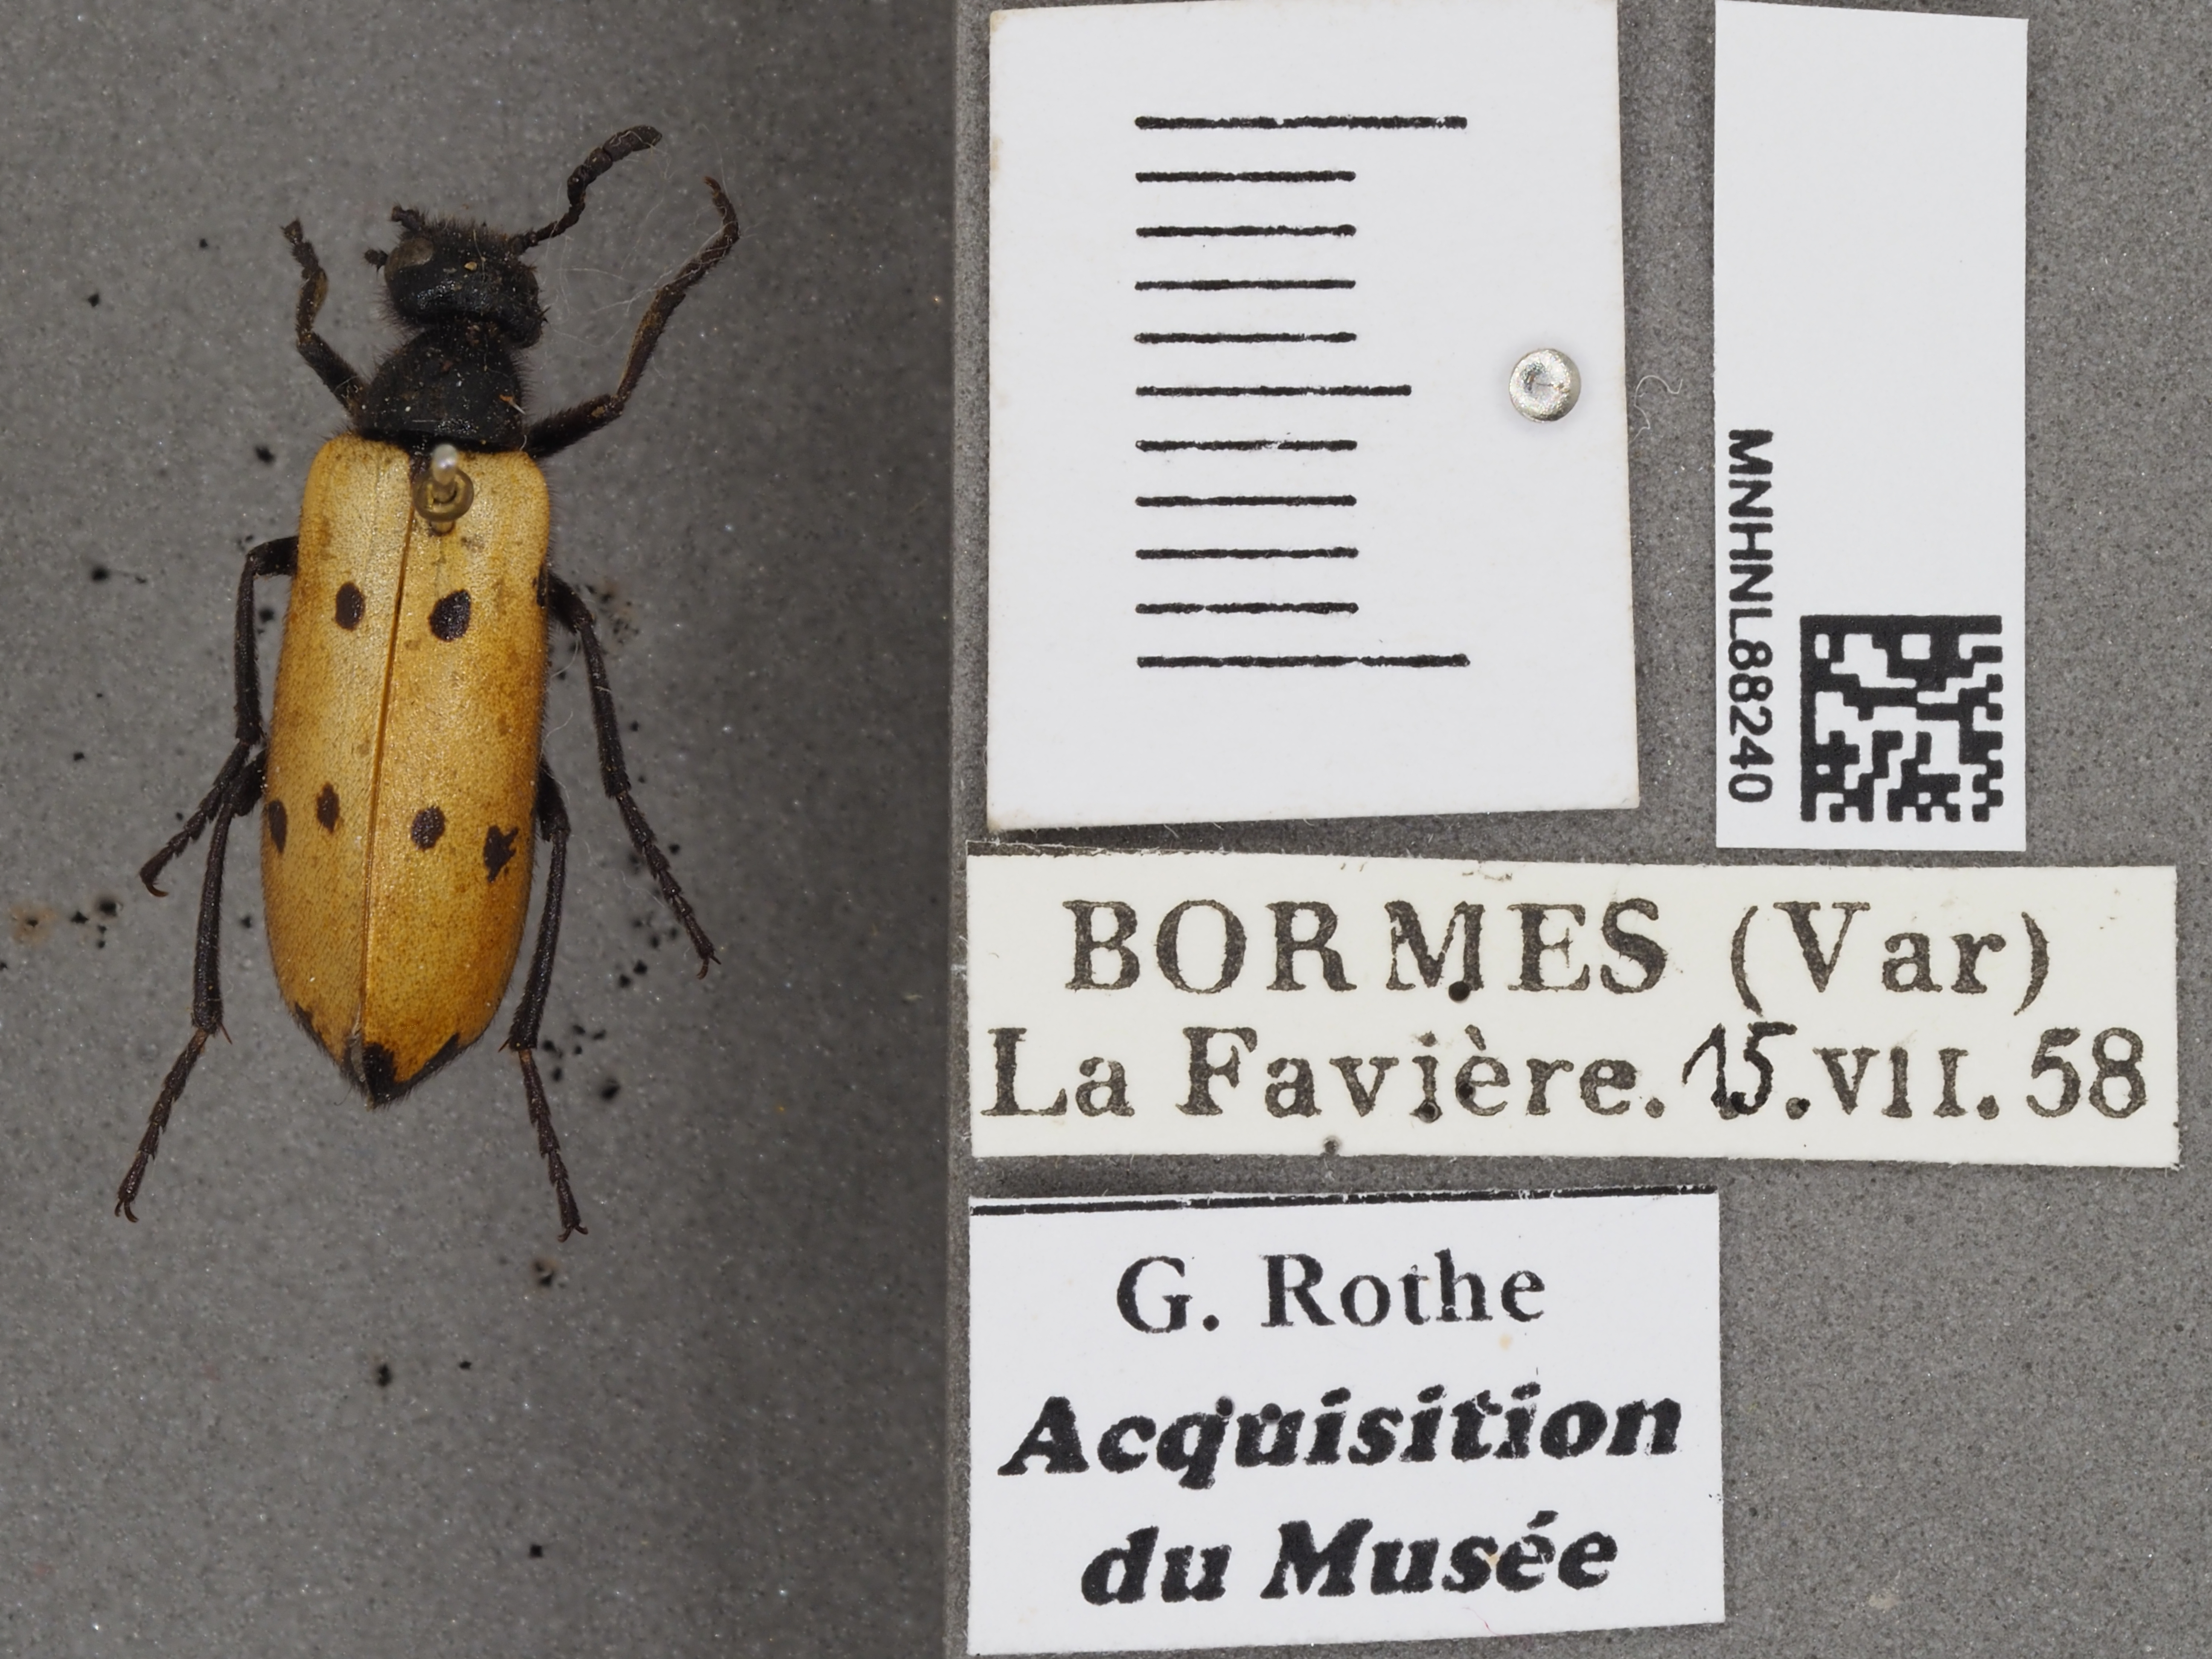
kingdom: Animalia
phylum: Arthropoda
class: Insecta
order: Coleoptera
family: Meloidae
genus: Mylabris
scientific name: Mylabris quadripunctata
